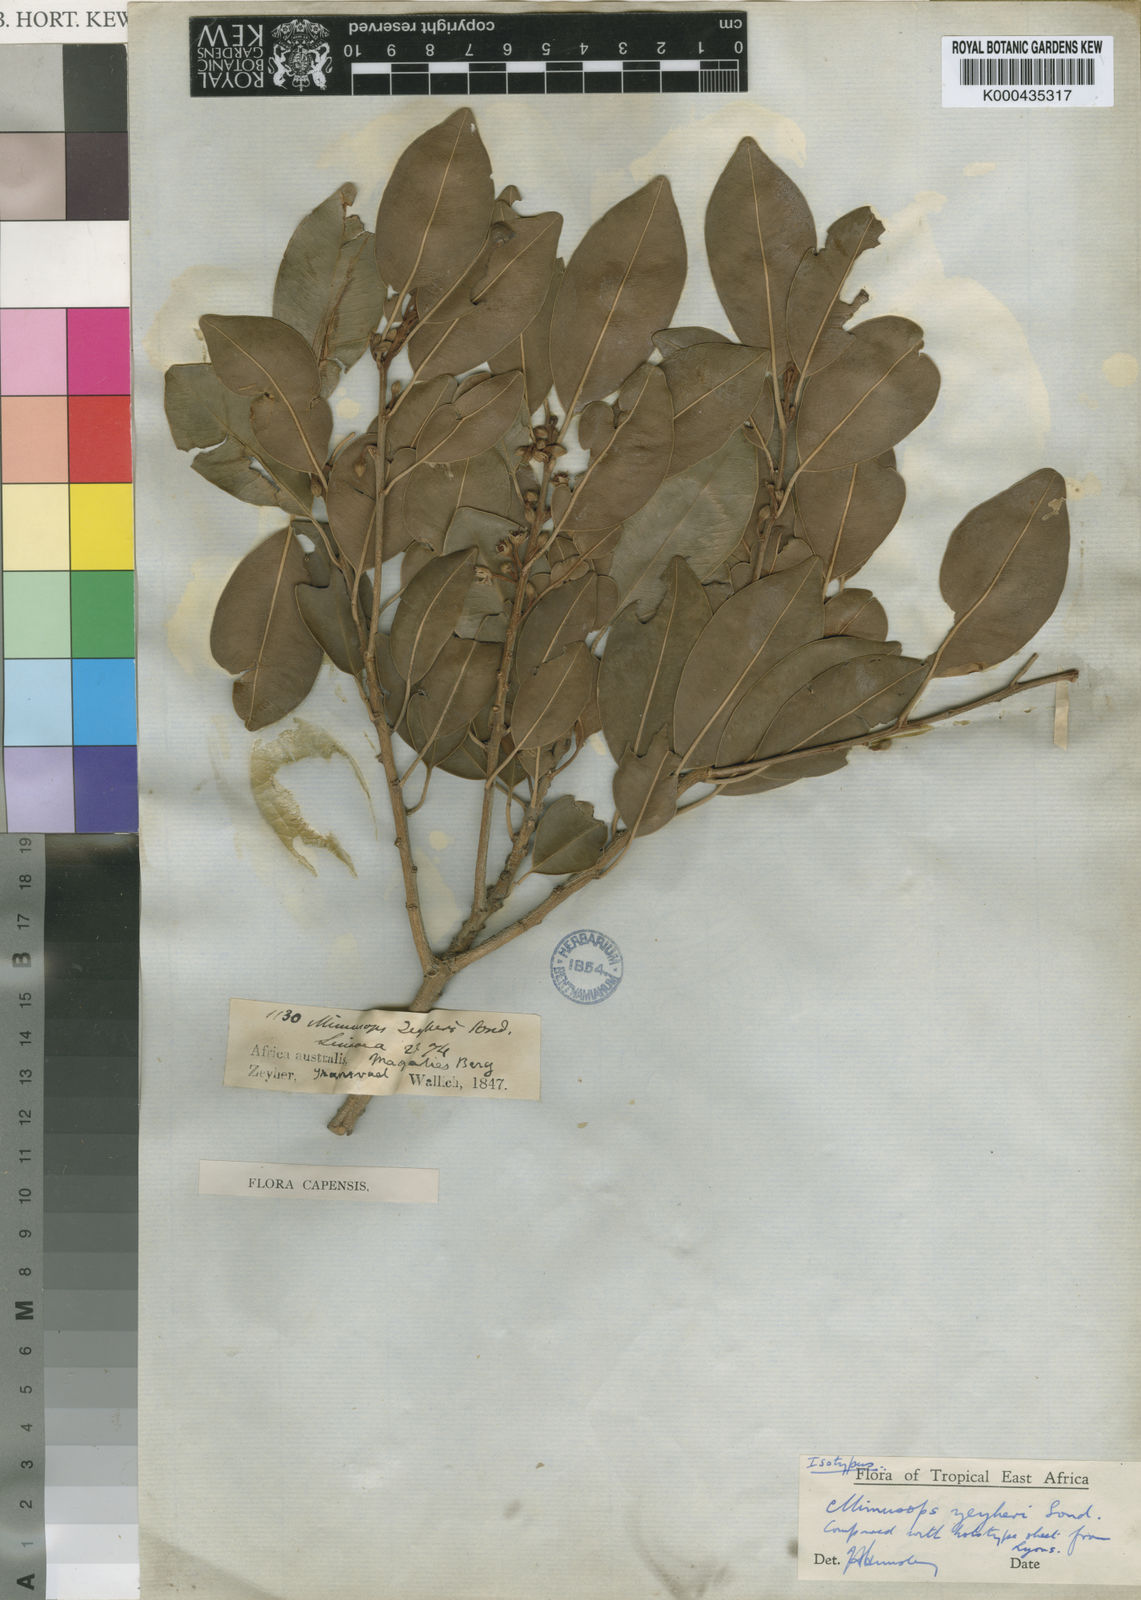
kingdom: Plantae
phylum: Tracheophyta
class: Magnoliopsida
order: Ericales
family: Sapotaceae
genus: Mimusops
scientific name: Mimusops zeyheri
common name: Transvaal red milkwood
